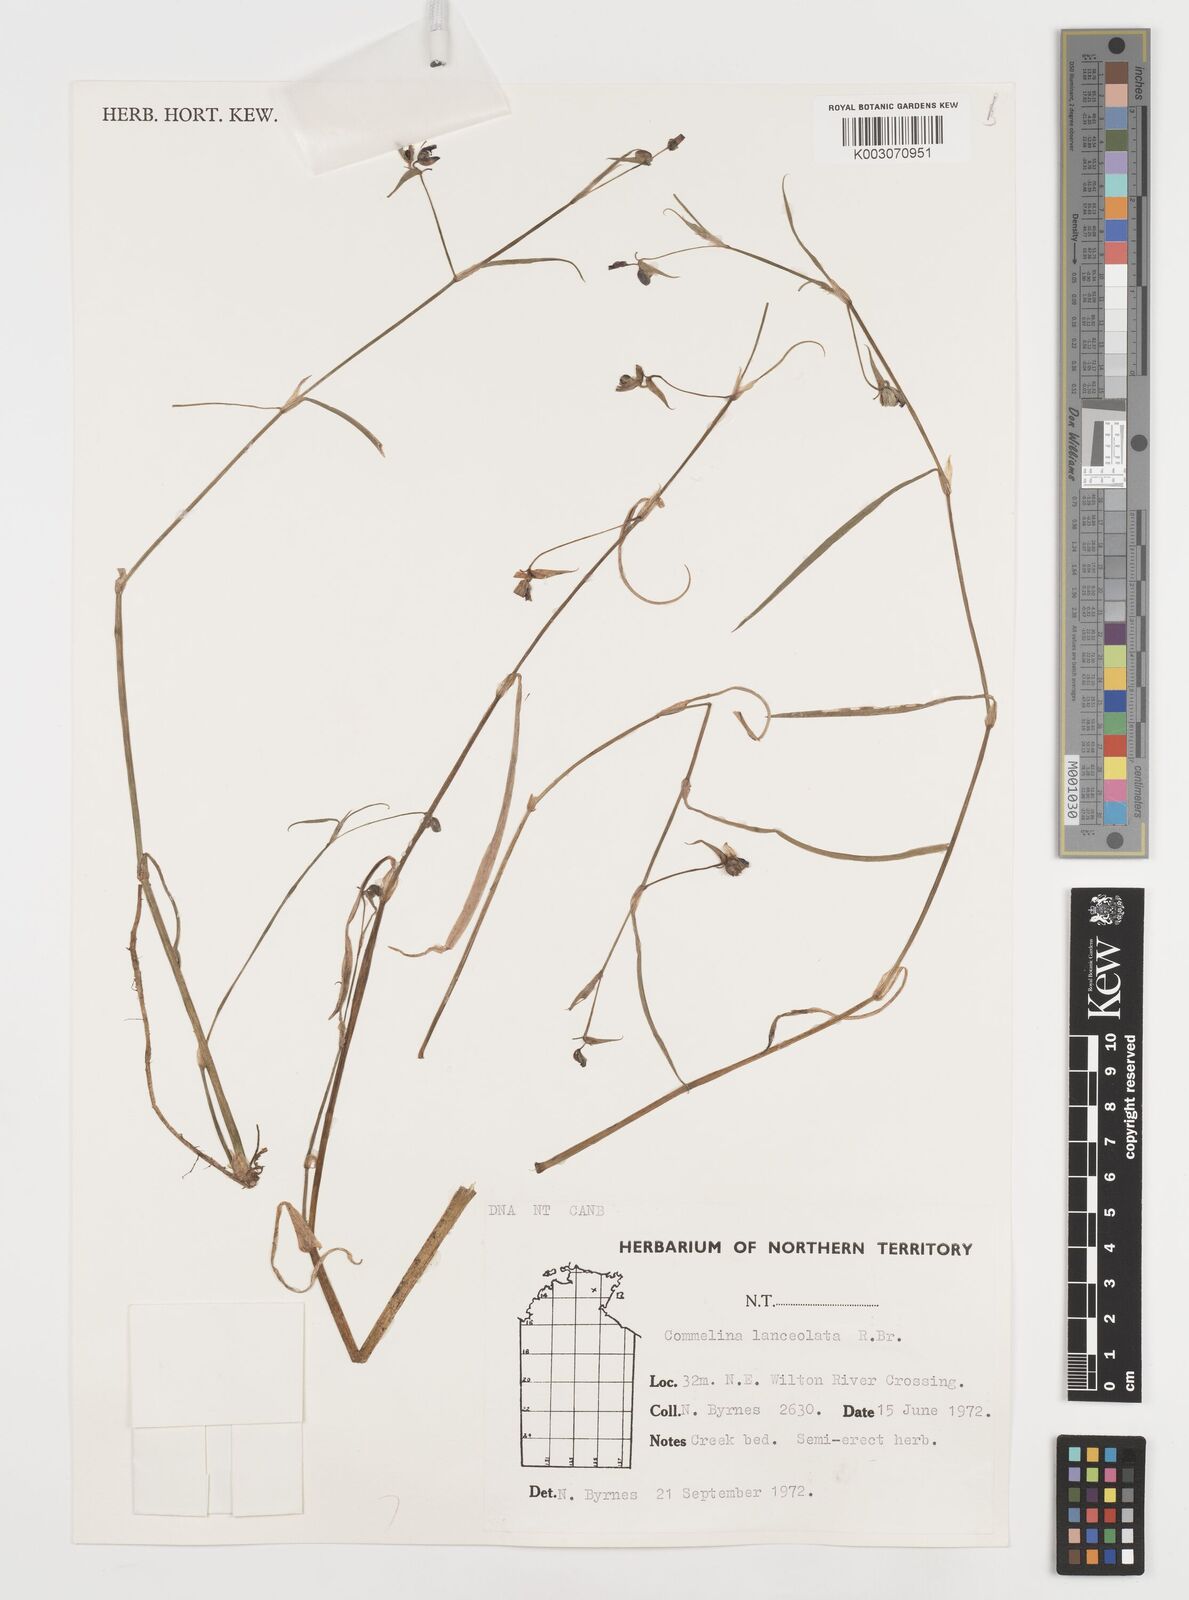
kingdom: Plantae
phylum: Tracheophyta
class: Liliopsida
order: Commelinales
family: Commelinaceae
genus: Commelina
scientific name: Commelina lanceolata
